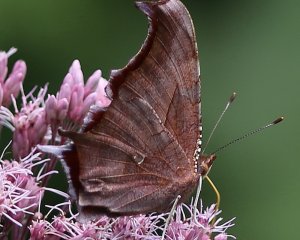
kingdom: Animalia
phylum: Arthropoda
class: Insecta
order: Lepidoptera
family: Nymphalidae
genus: Polygonia
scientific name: Polygonia interrogationis
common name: Question Mark
